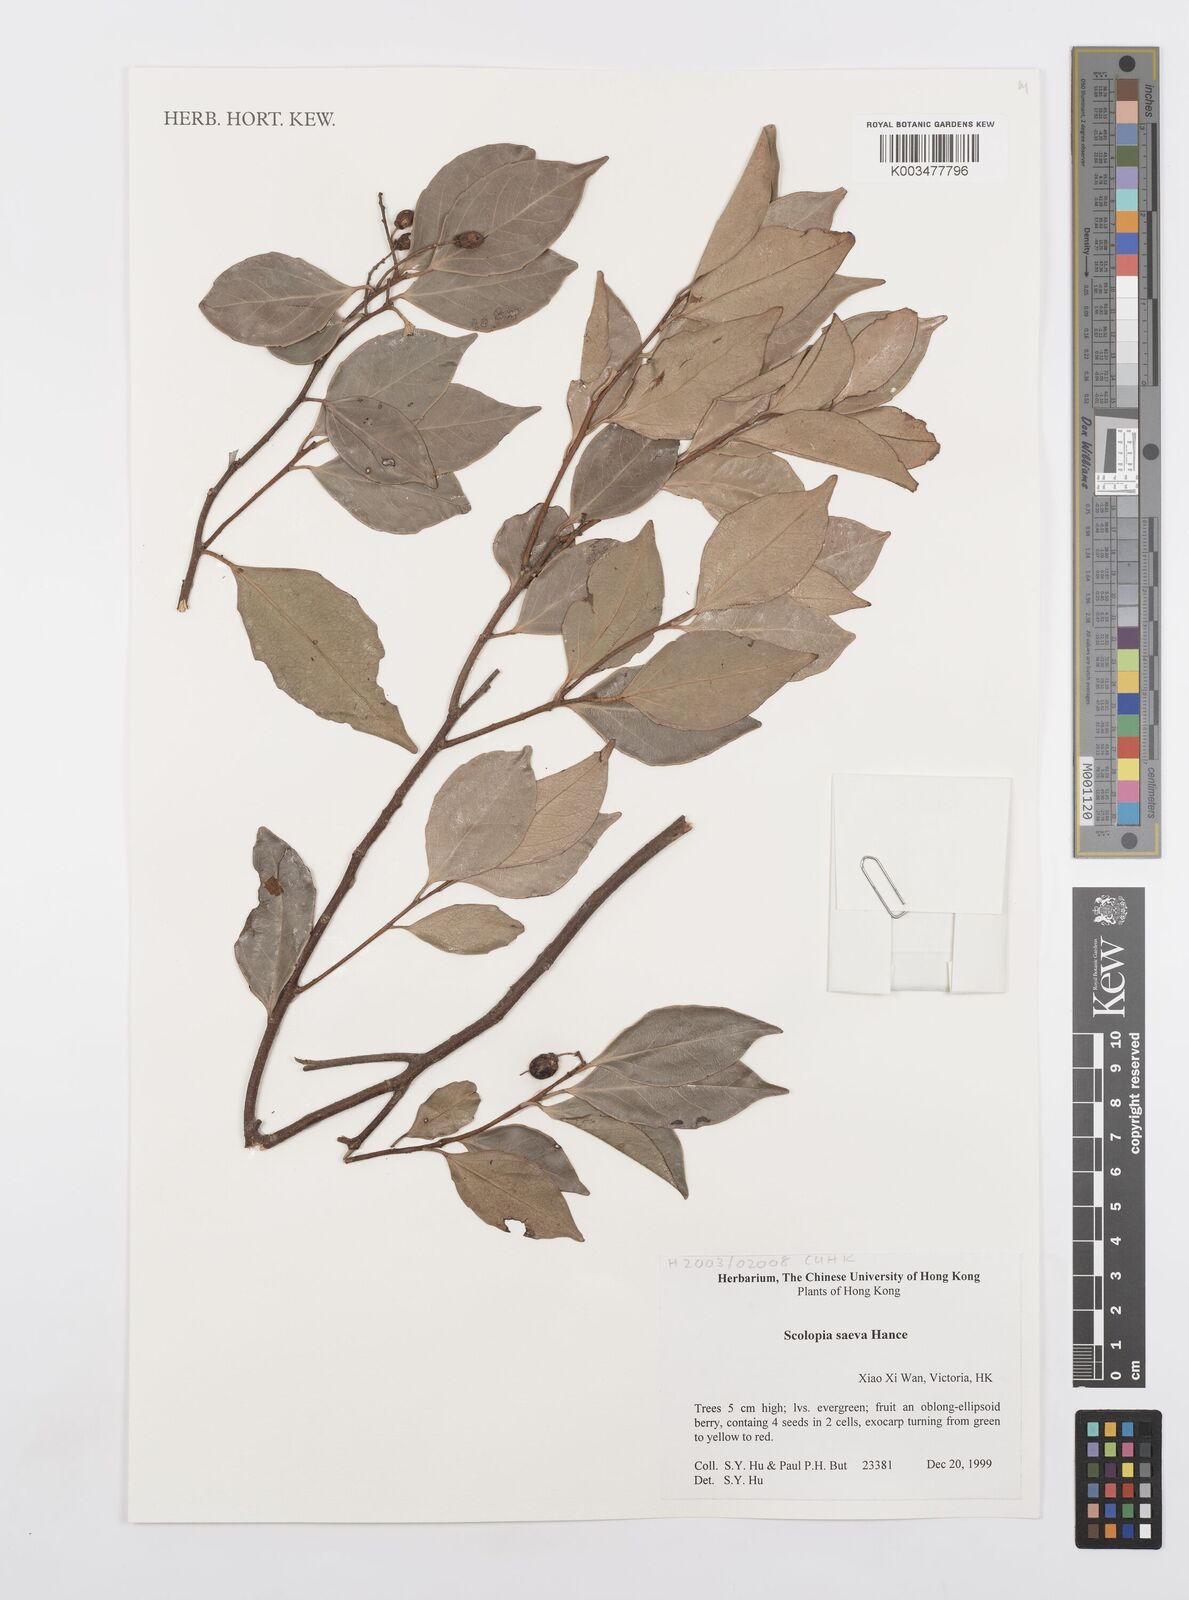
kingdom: Plantae
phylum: Tracheophyta
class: Magnoliopsida
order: Malpighiales
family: Salicaceae
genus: Scolopia
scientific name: Scolopia saeva
